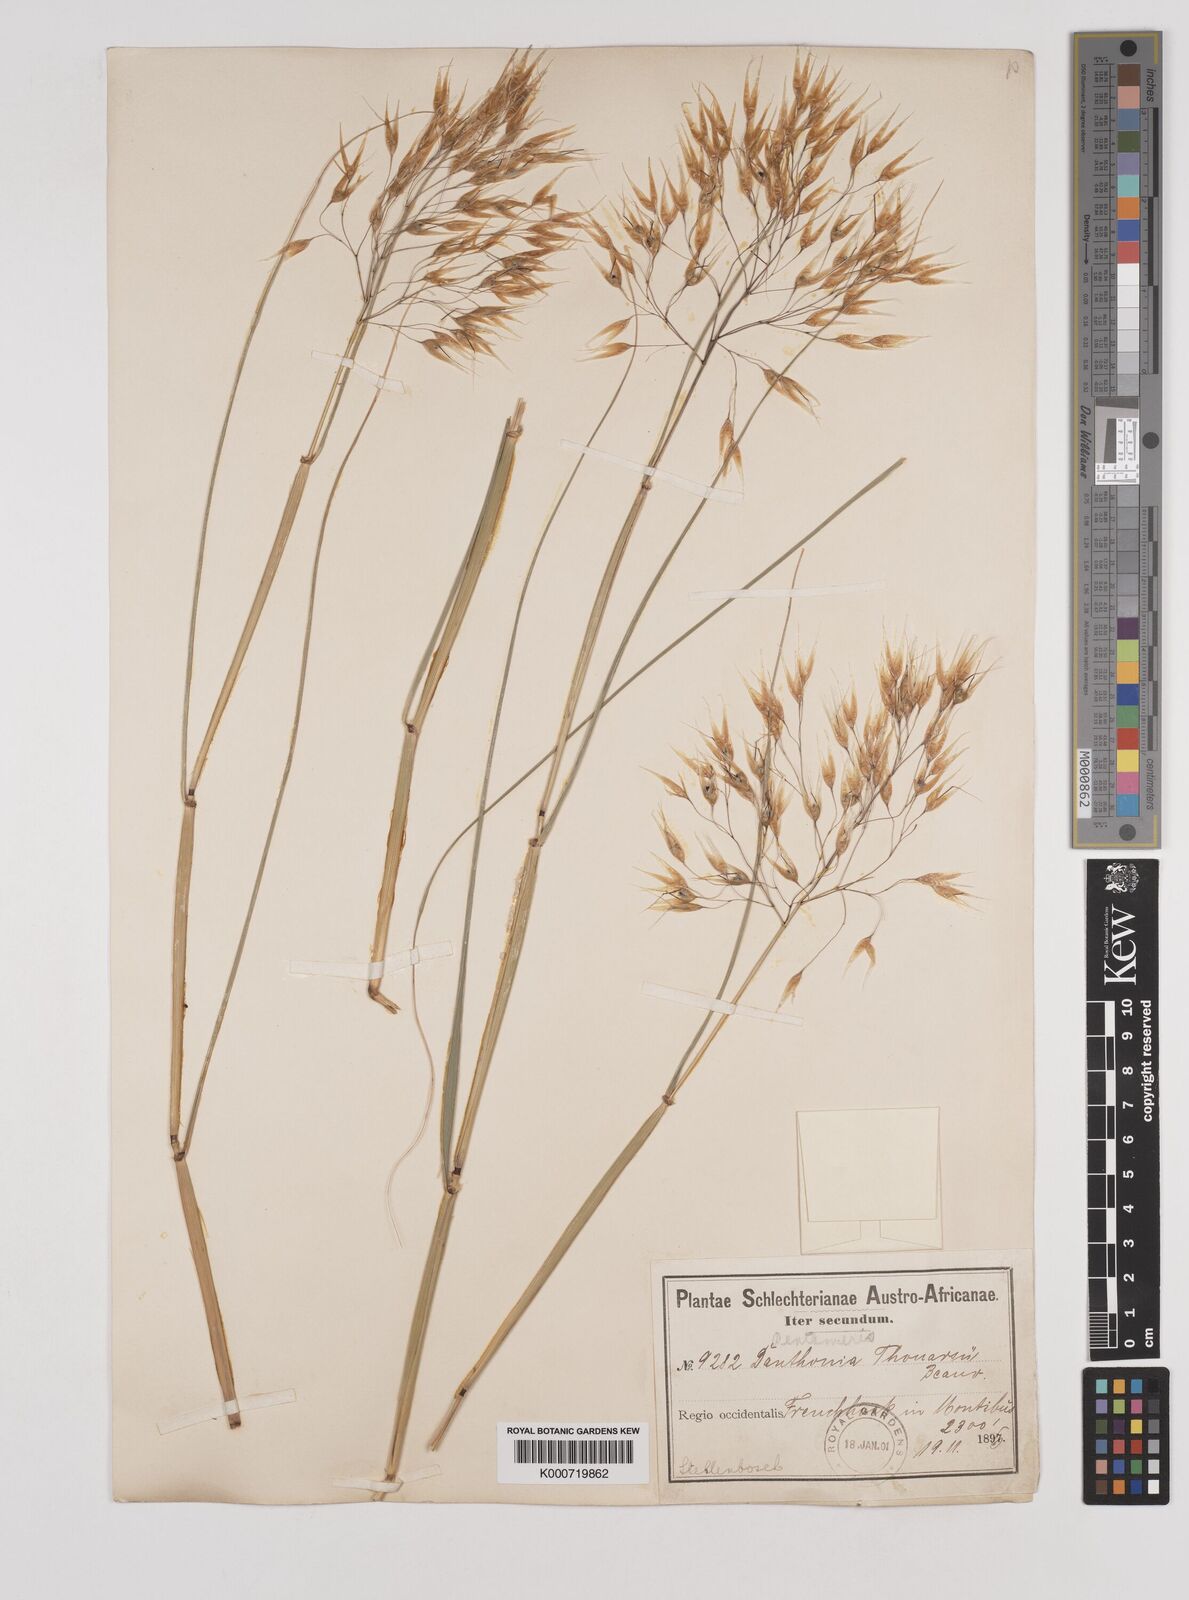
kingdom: Plantae
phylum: Tracheophyta
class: Liliopsida
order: Poales
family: Poaceae
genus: Pentameris
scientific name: Pentameris thuarii
